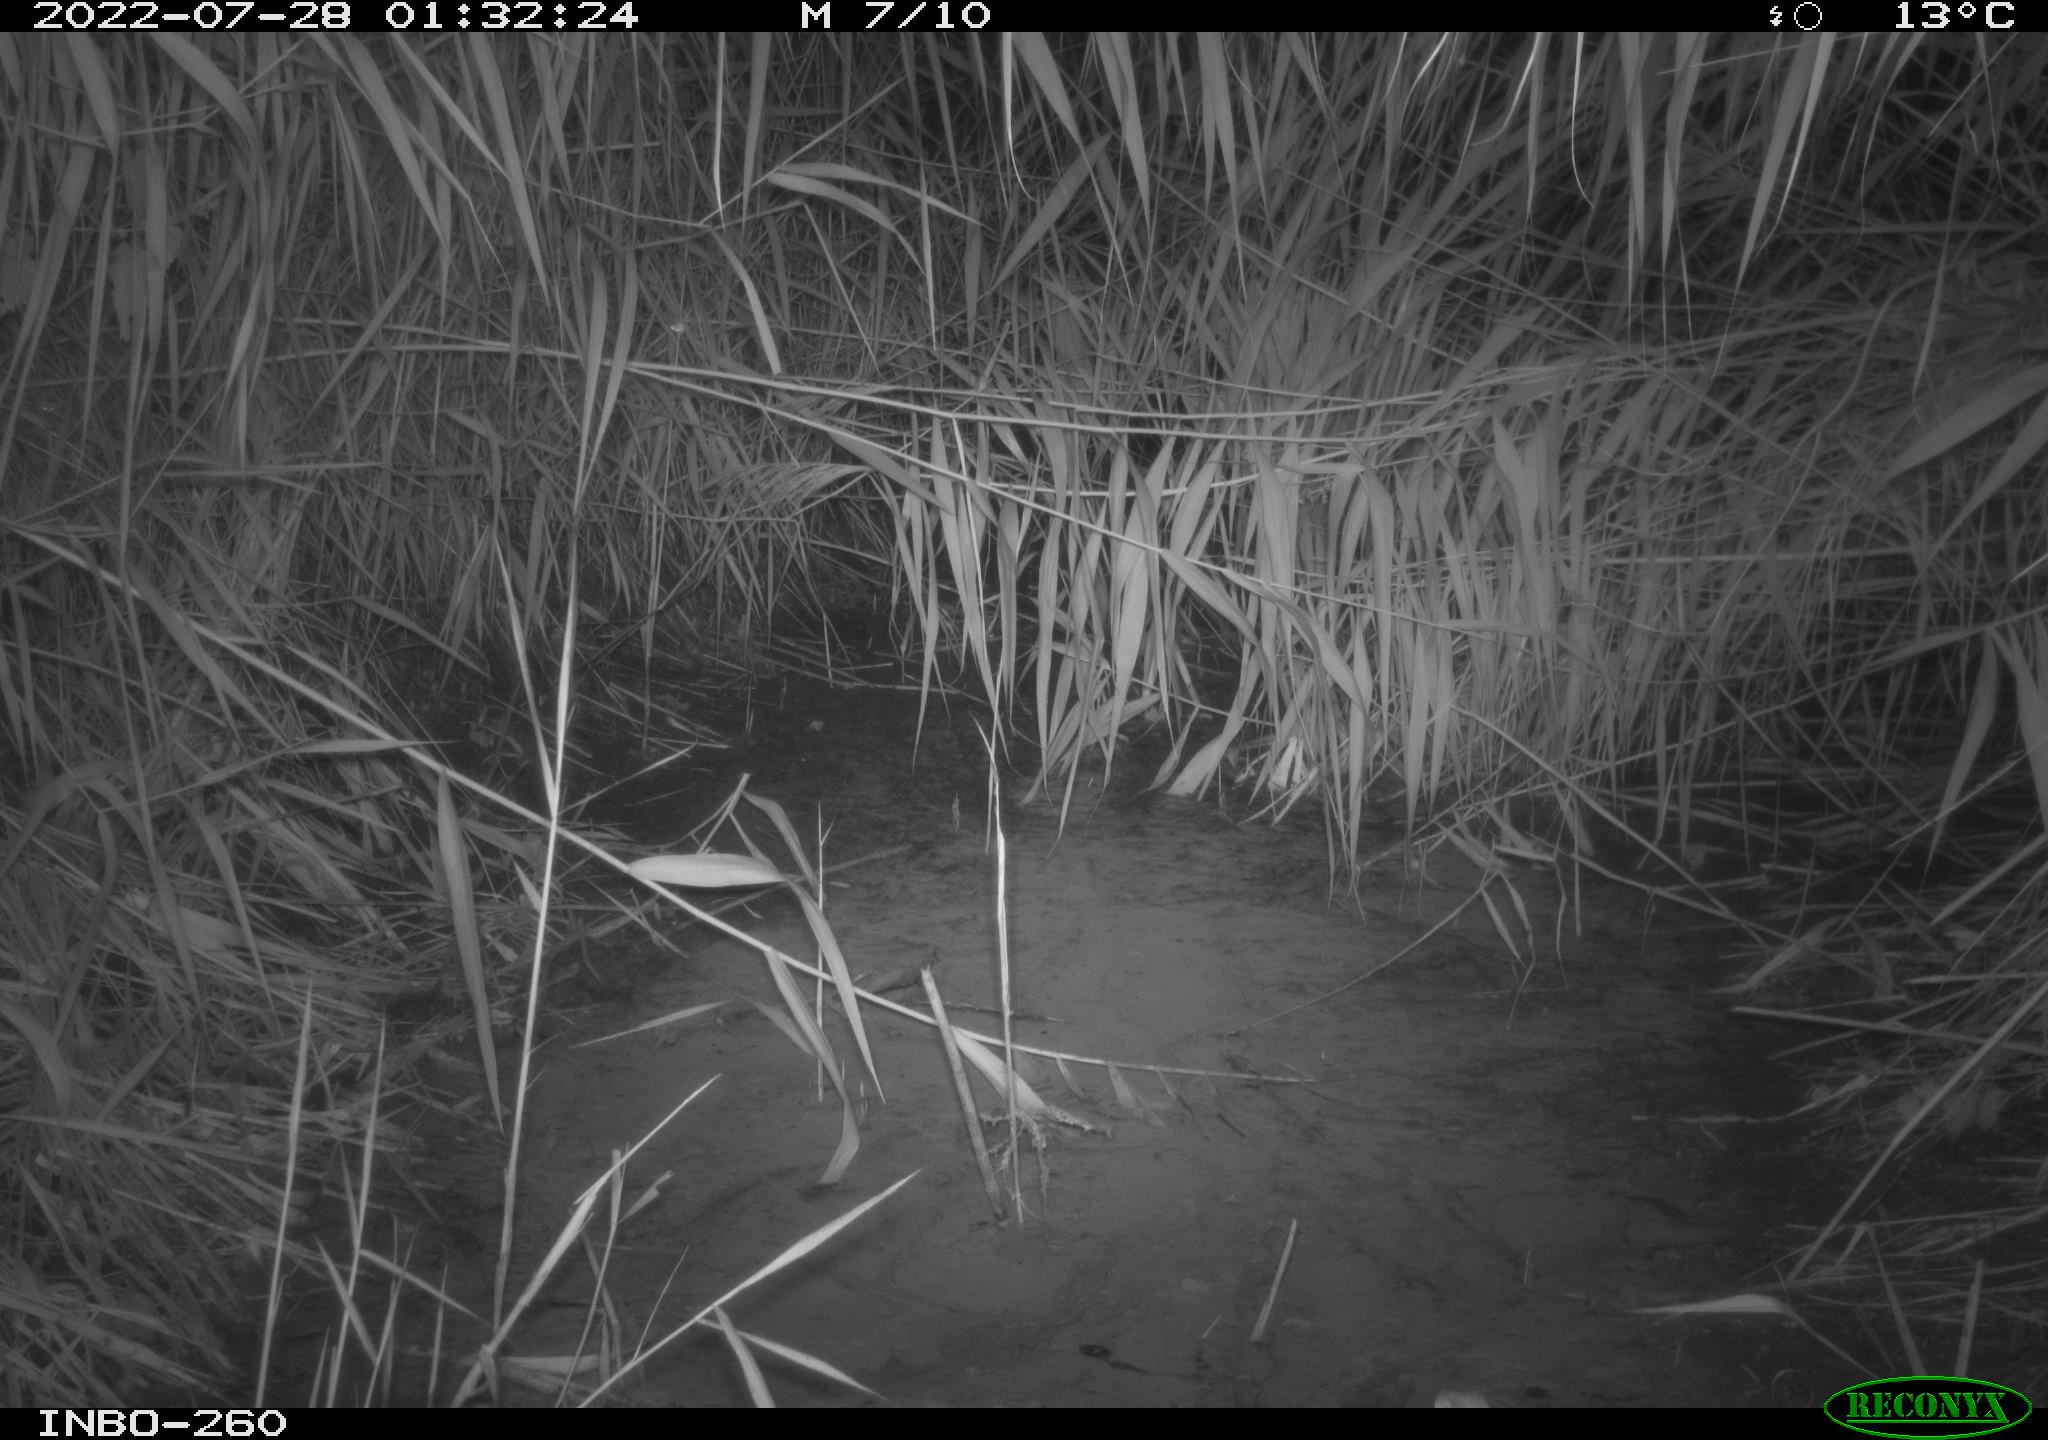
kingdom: Animalia
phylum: Chordata
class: Mammalia
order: Rodentia
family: Muridae
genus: Rattus
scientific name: Rattus norvegicus
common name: Brown rat
